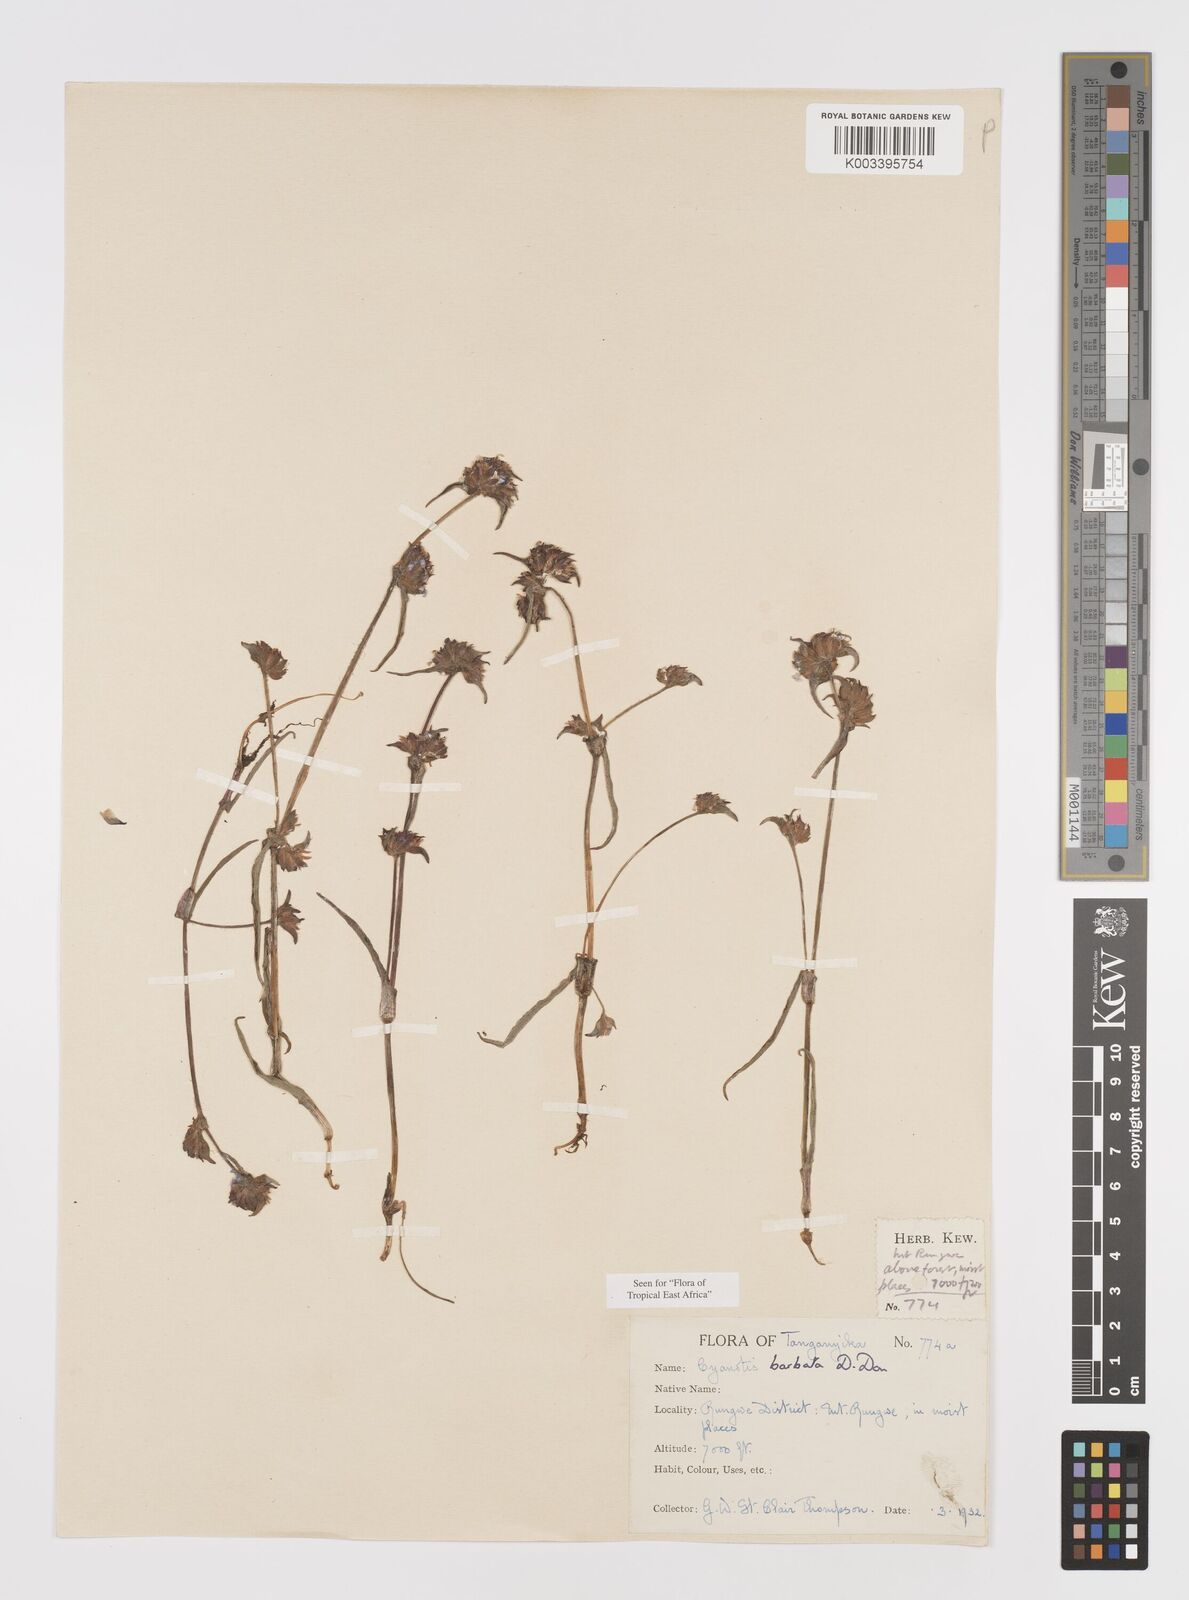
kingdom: Plantae
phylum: Tracheophyta
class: Liliopsida
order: Commelinales
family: Commelinaceae
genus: Cyanotis
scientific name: Cyanotis vaga
